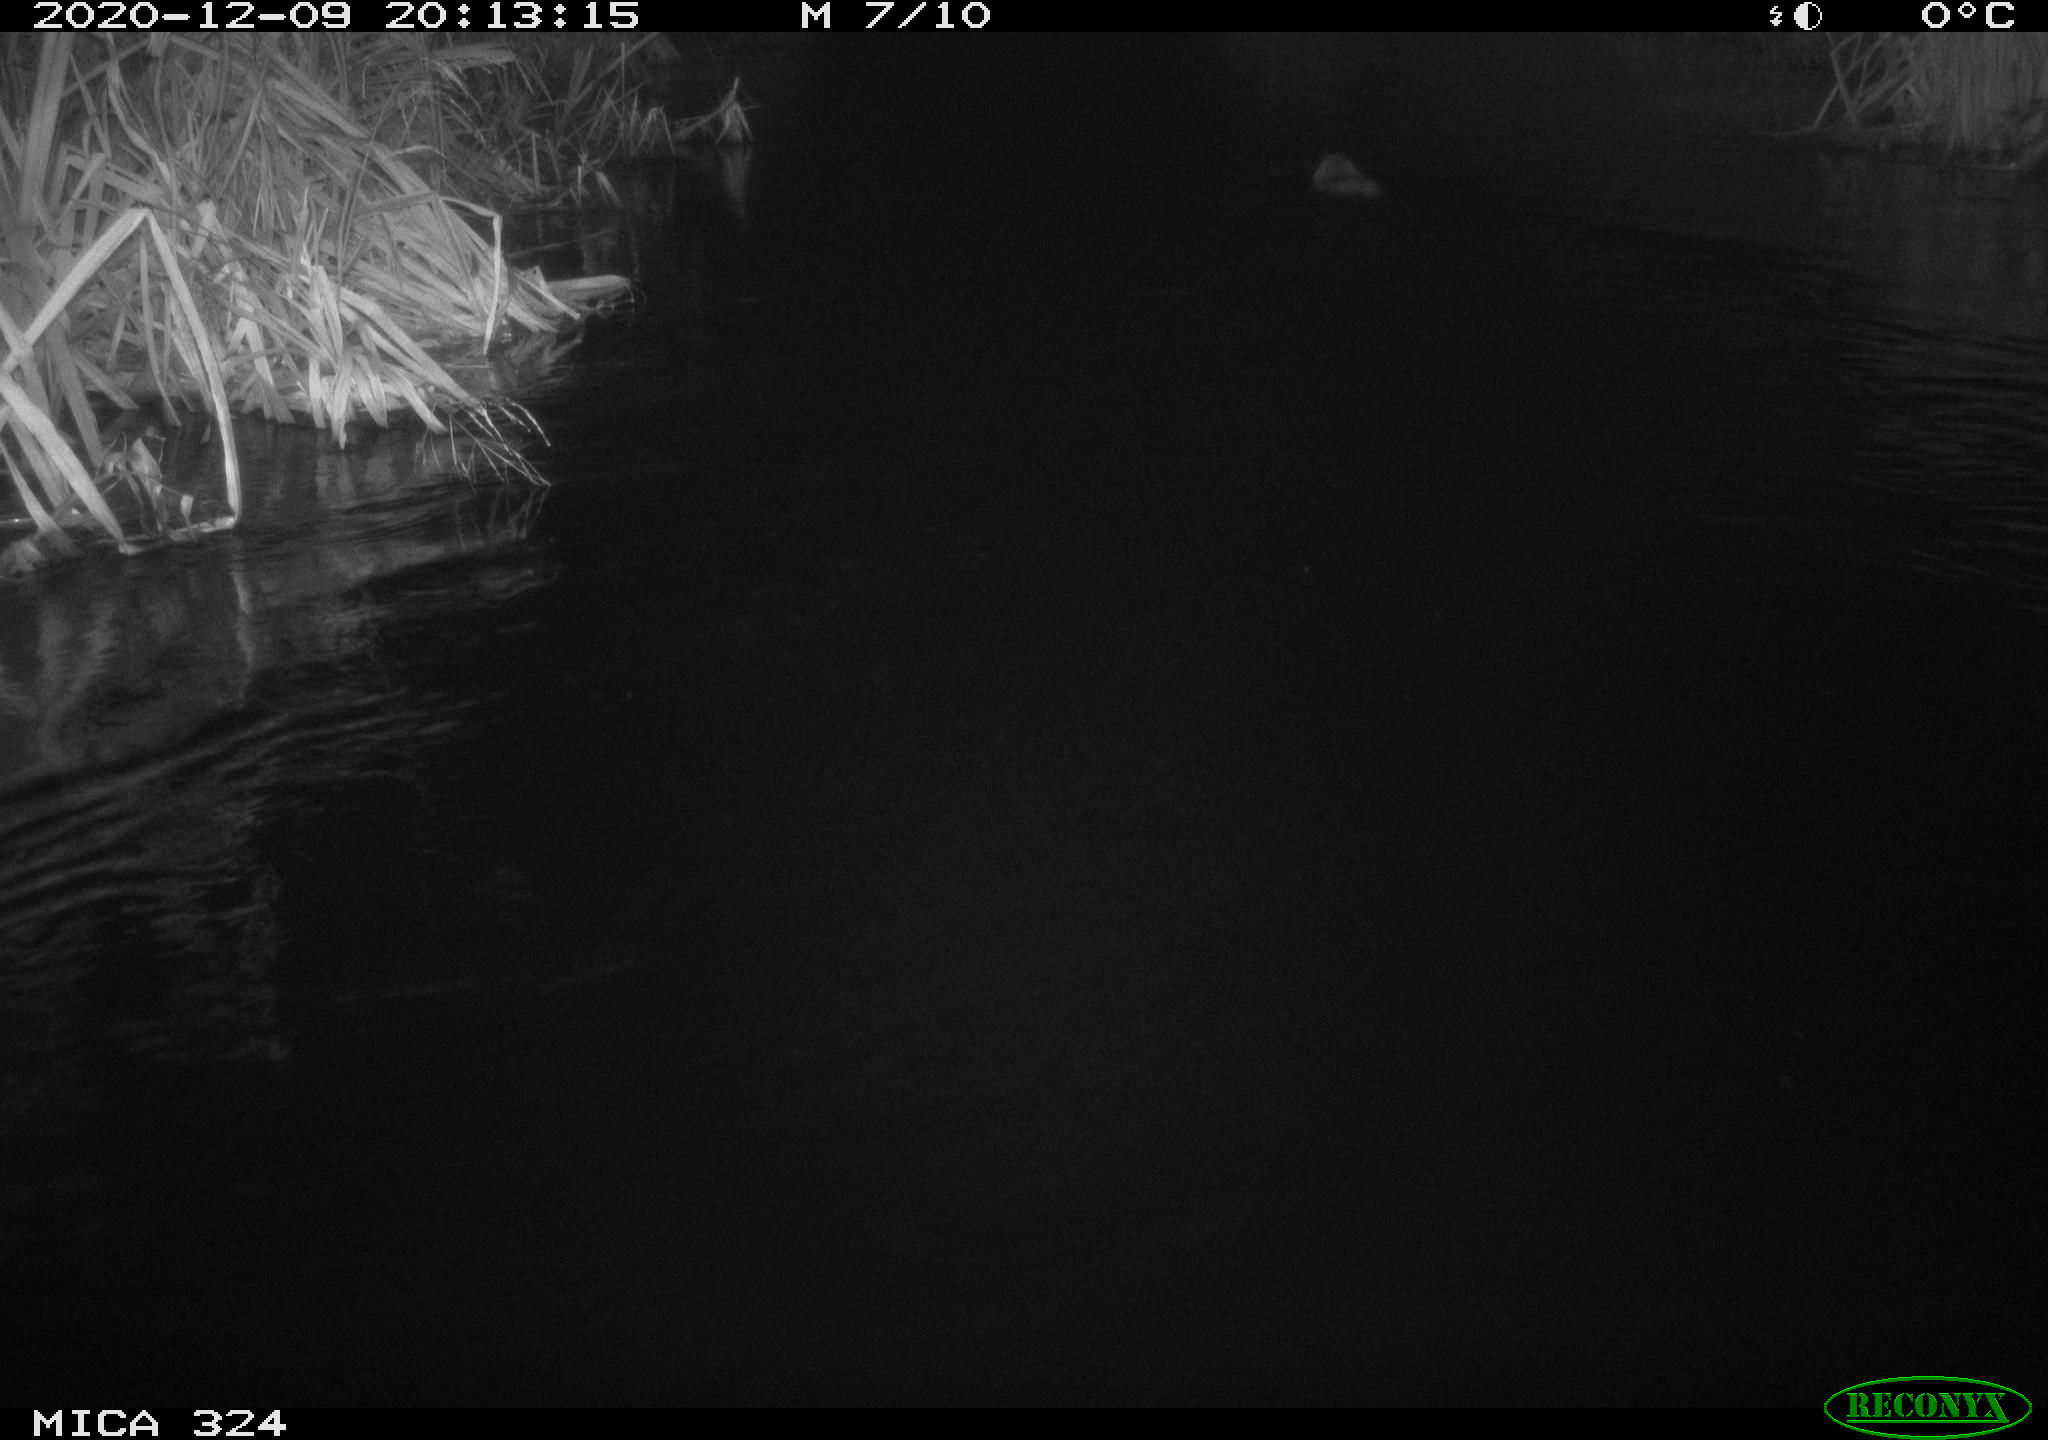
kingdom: Animalia
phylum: Chordata
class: Mammalia
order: Rodentia
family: Myocastoridae
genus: Myocastor
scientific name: Myocastor coypus
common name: Coypu
